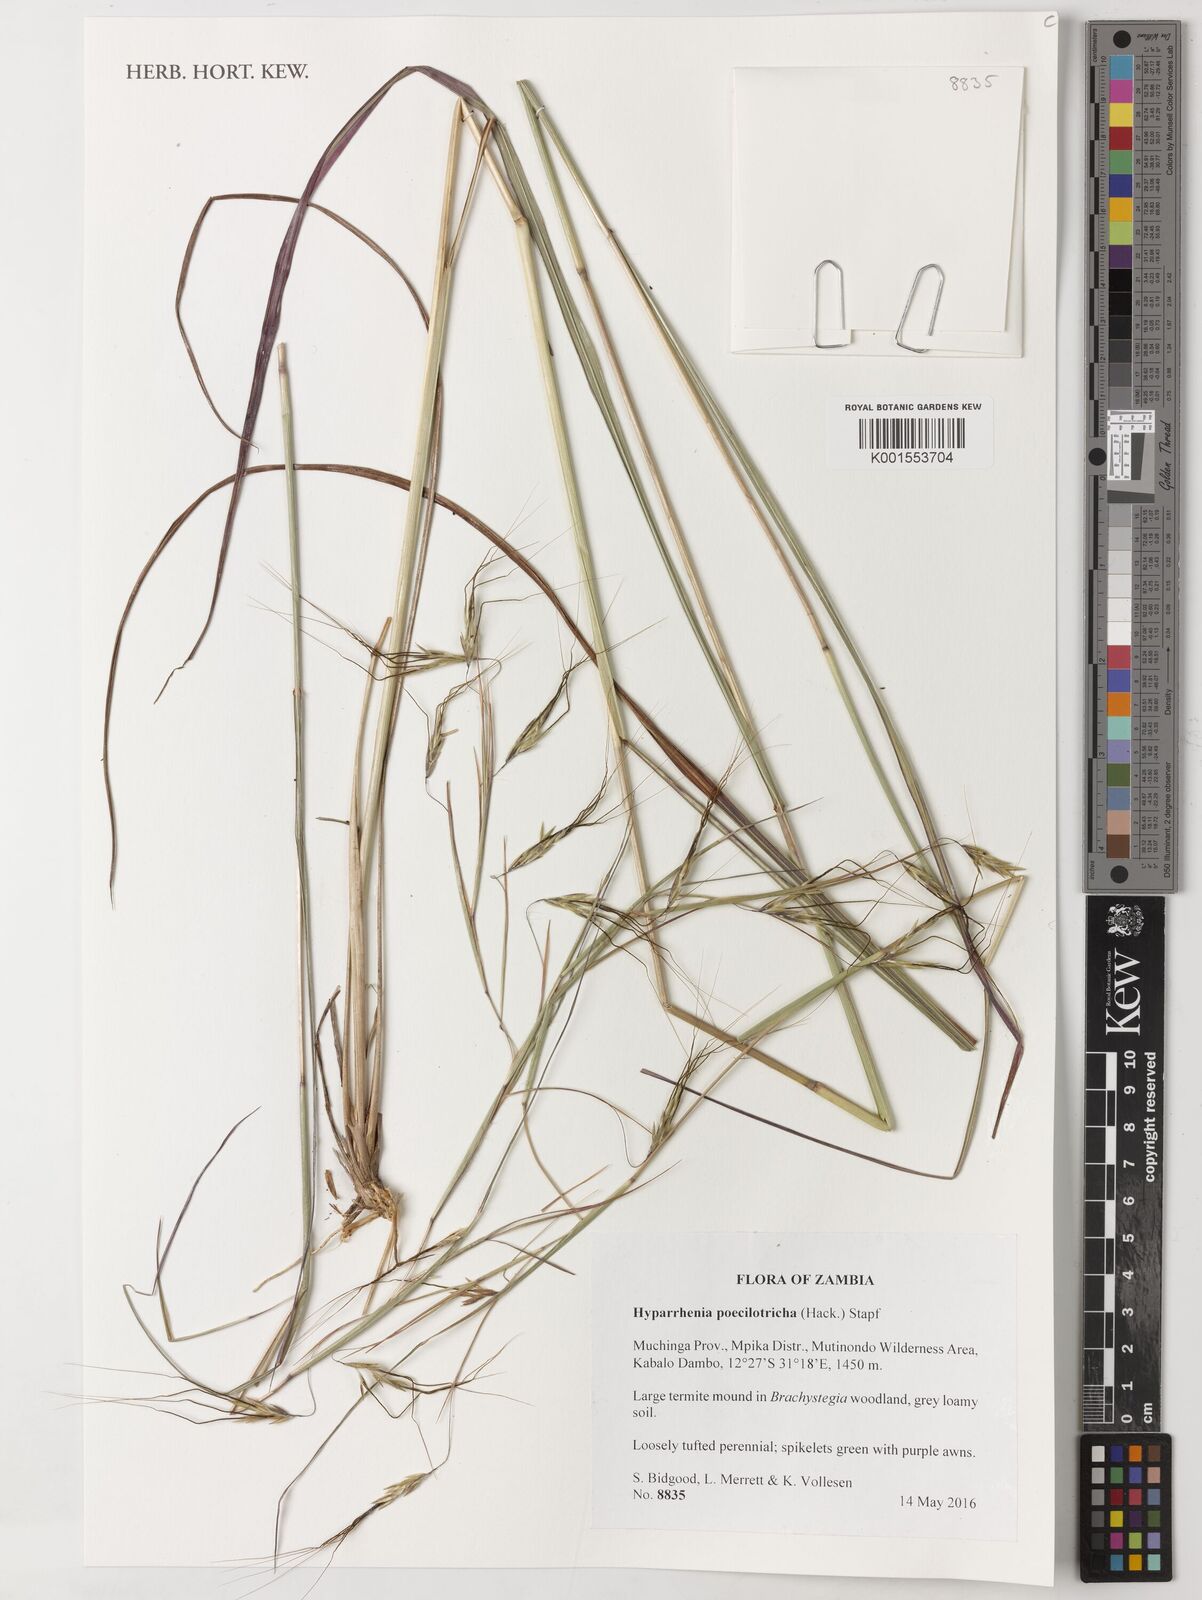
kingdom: Plantae
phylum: Tracheophyta
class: Liliopsida
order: Poales
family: Poaceae
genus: Hyparrhenia
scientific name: Hyparrhenia poecilotricha
